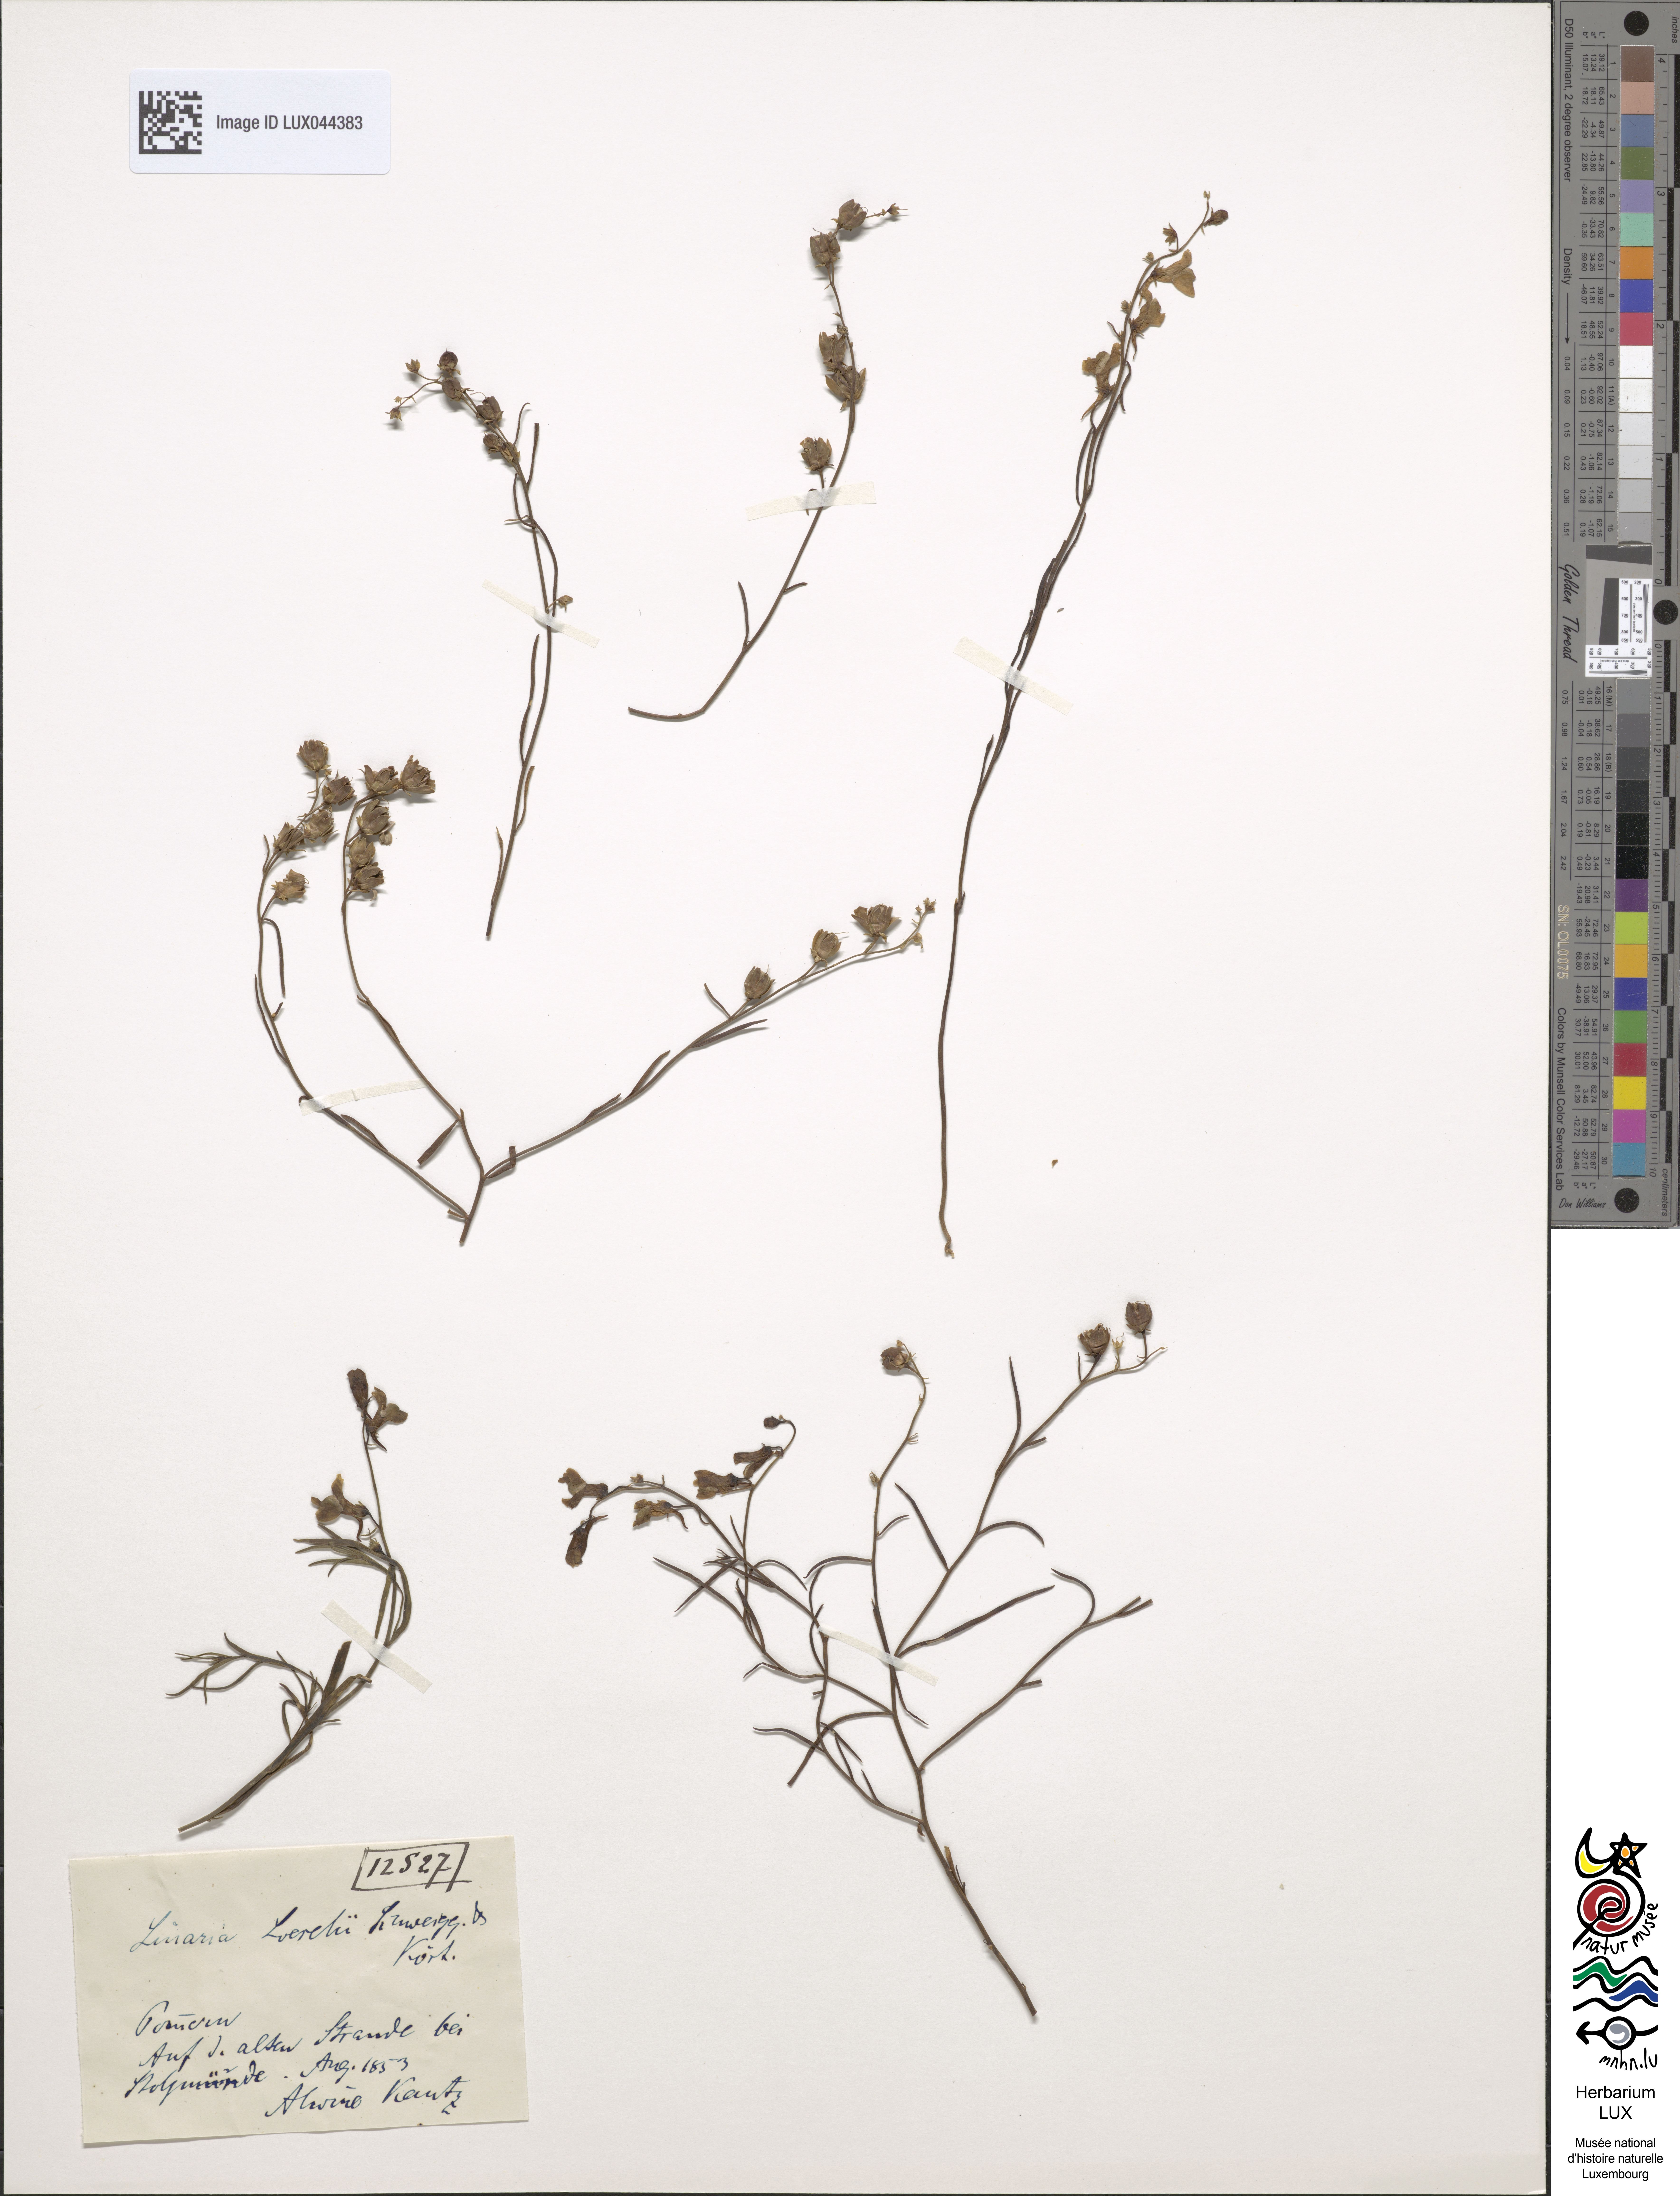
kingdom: Plantae
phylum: Tracheophyta
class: Magnoliopsida
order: Lamiales
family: Plantaginaceae
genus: Linaria
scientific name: Linaria odora
